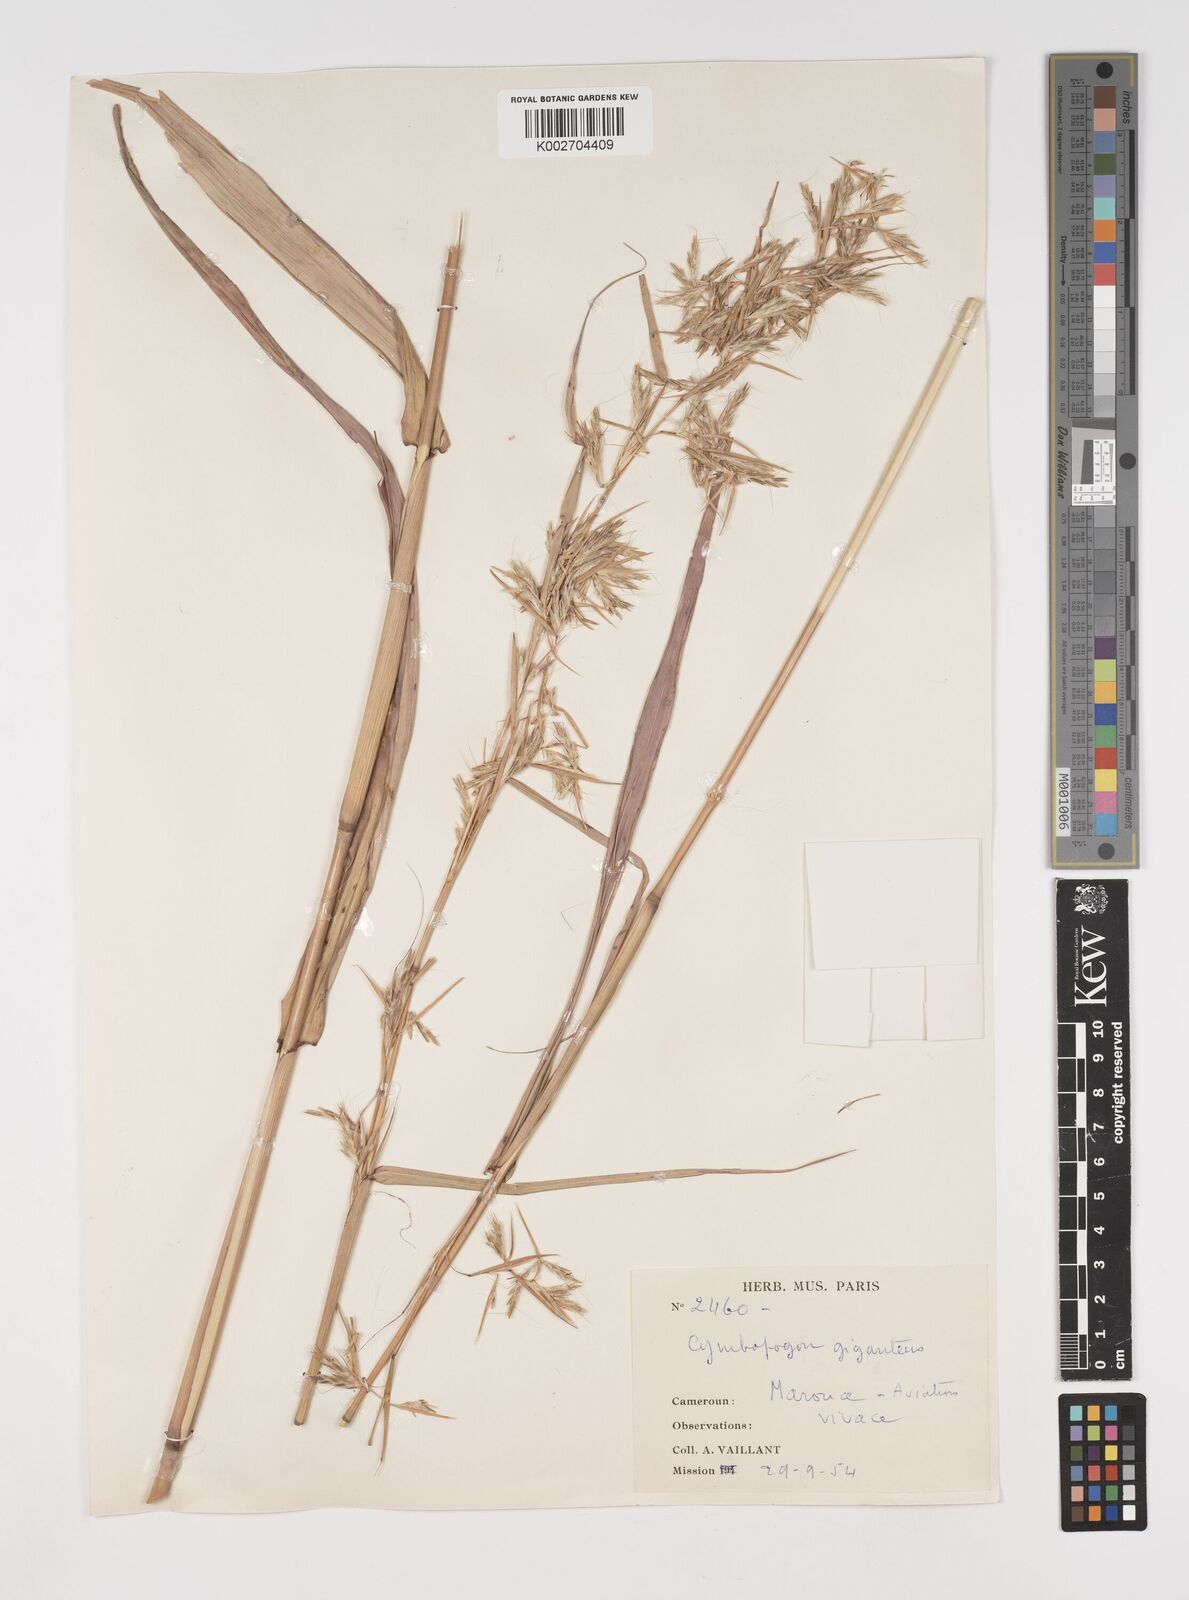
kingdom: Plantae
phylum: Tracheophyta
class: Liliopsida
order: Poales
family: Poaceae
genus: Cymbopogon
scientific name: Cymbopogon giganteus
